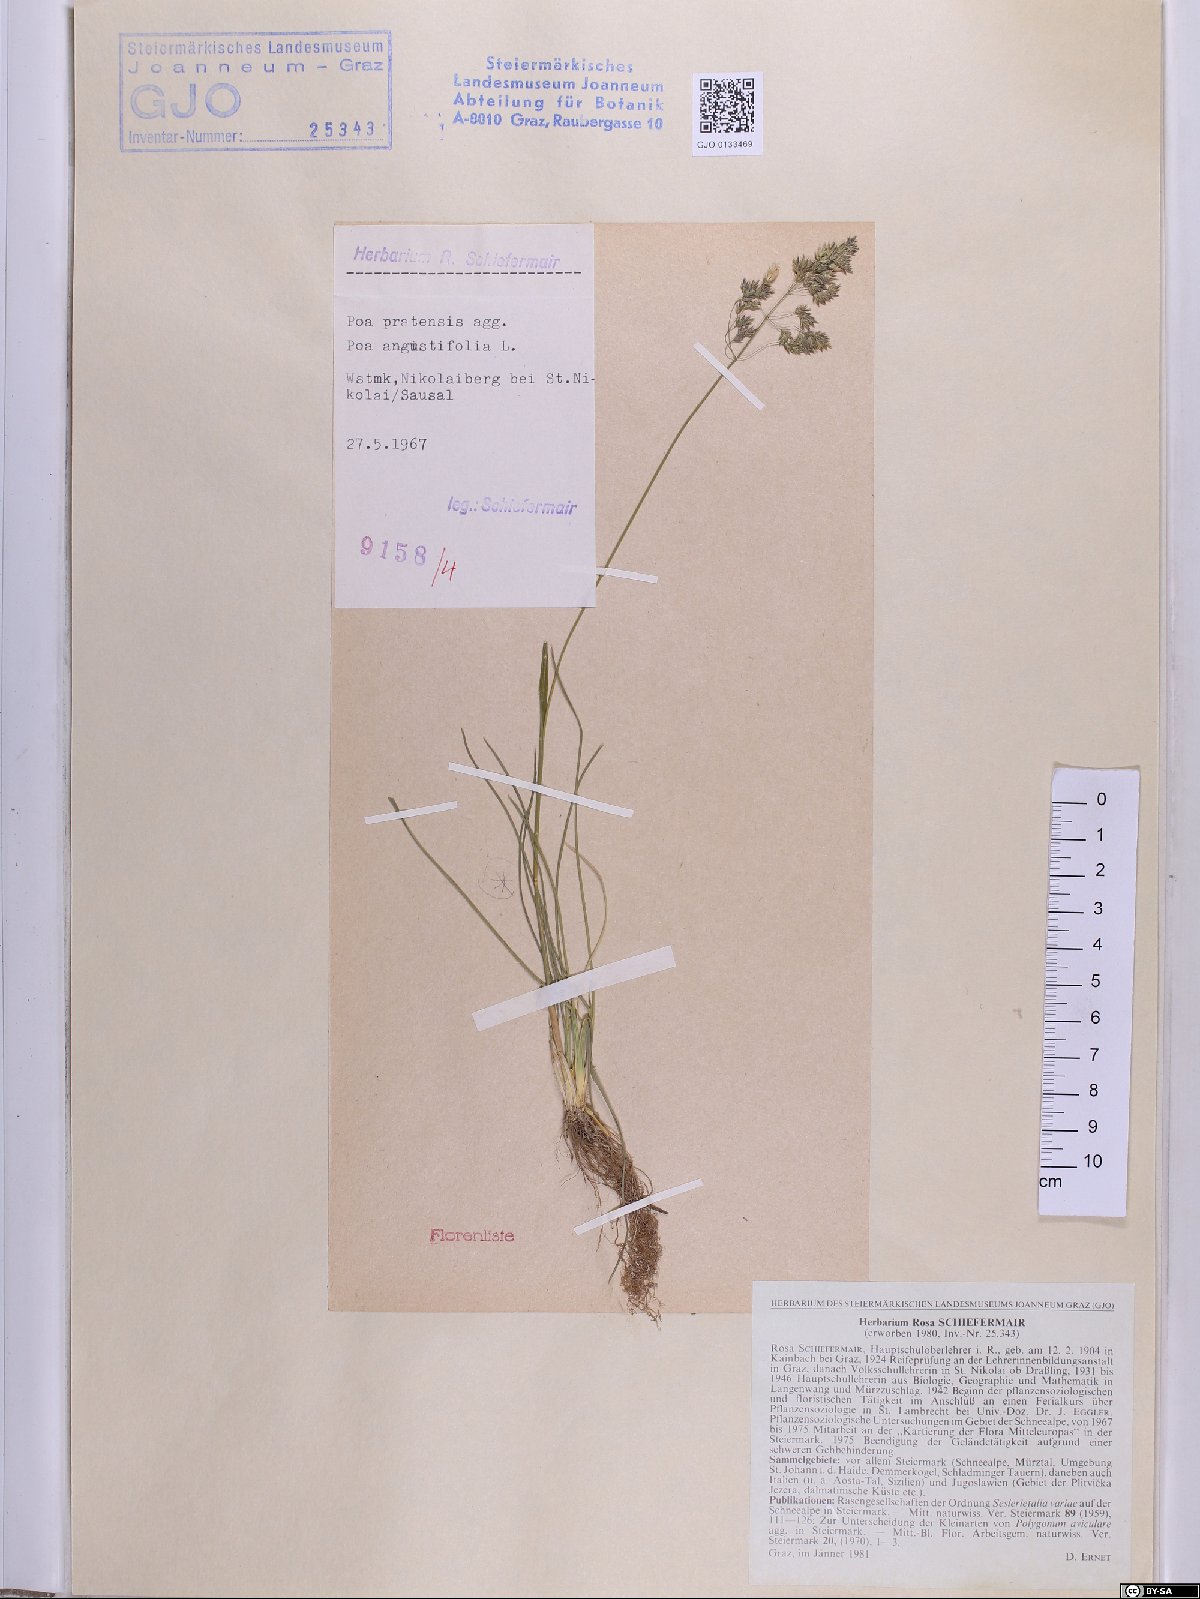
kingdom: Plantae
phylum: Tracheophyta
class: Liliopsida
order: Poales
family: Poaceae
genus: Poa
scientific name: Poa angustifolia
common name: Narrow-leaved meadow-grass
